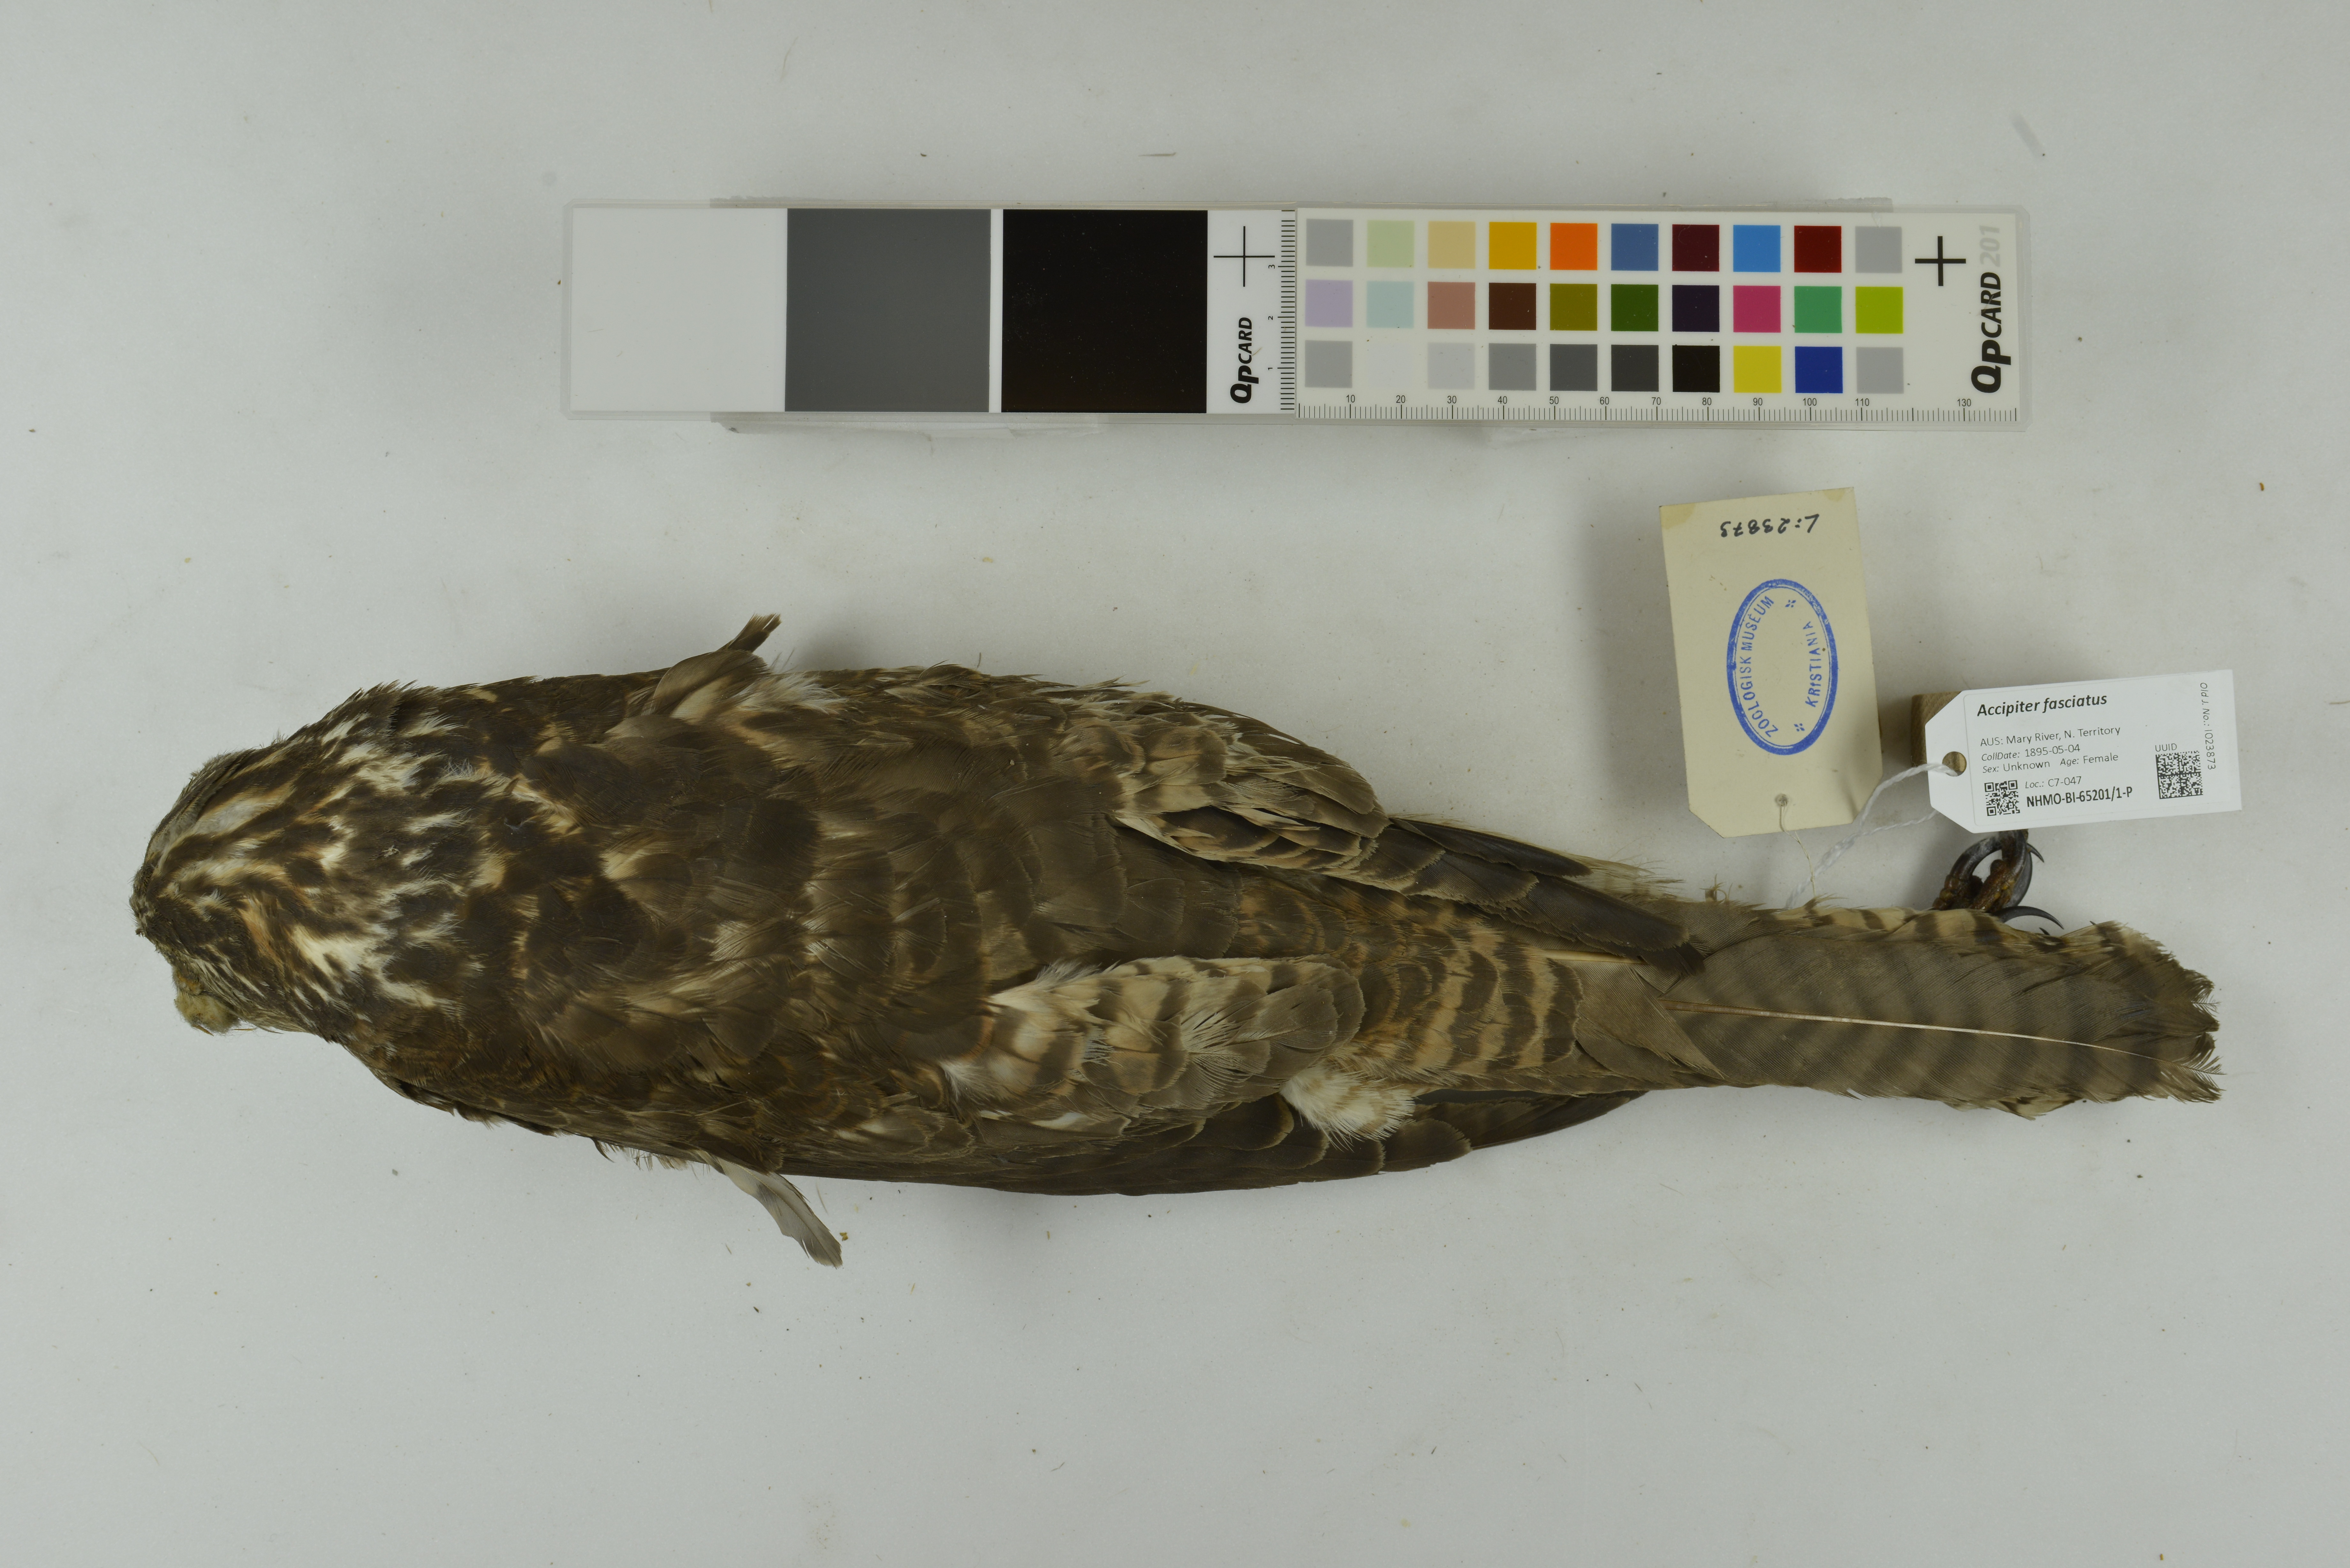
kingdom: Animalia
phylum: Chordata
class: Aves
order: Accipitriformes
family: Accipitridae
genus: Accipiter
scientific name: Accipiter fasciatus
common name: Brown goshawk
